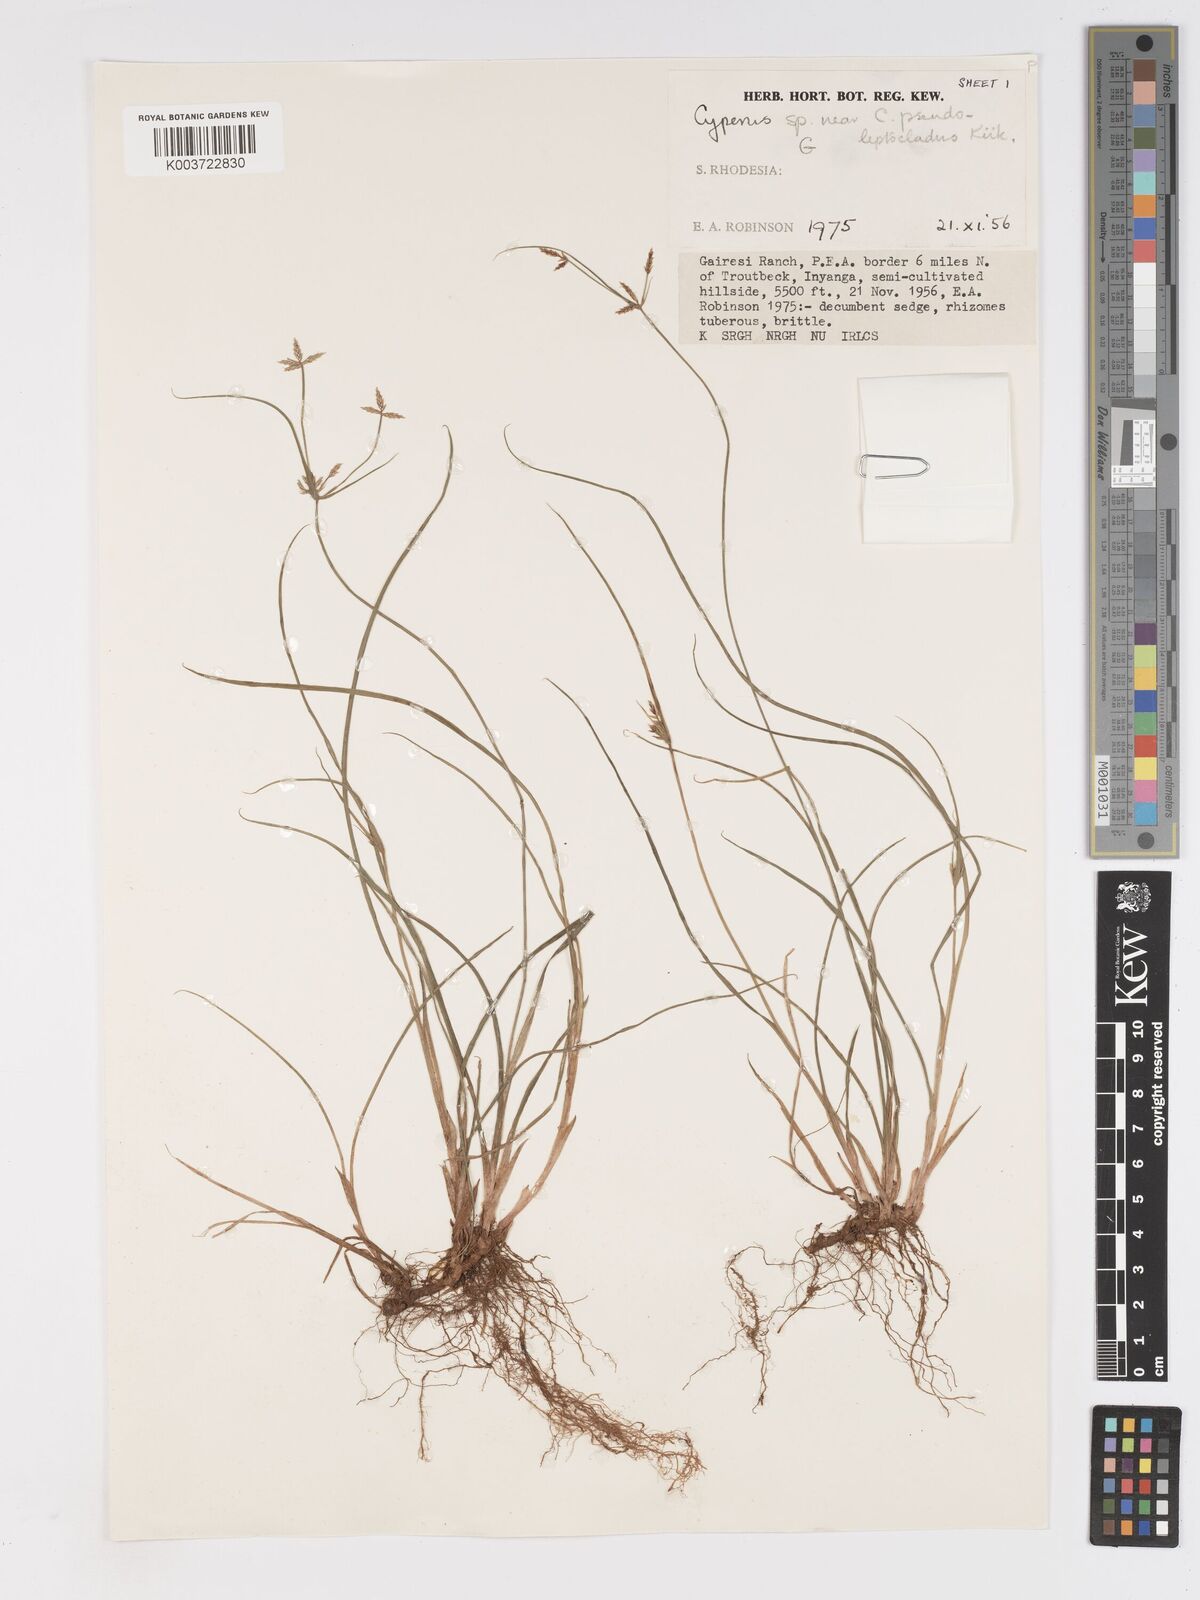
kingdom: Plantae
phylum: Tracheophyta
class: Liliopsida
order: Poales
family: Cyperaceae
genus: Cyperus
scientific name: Cyperus glaucophyllus
